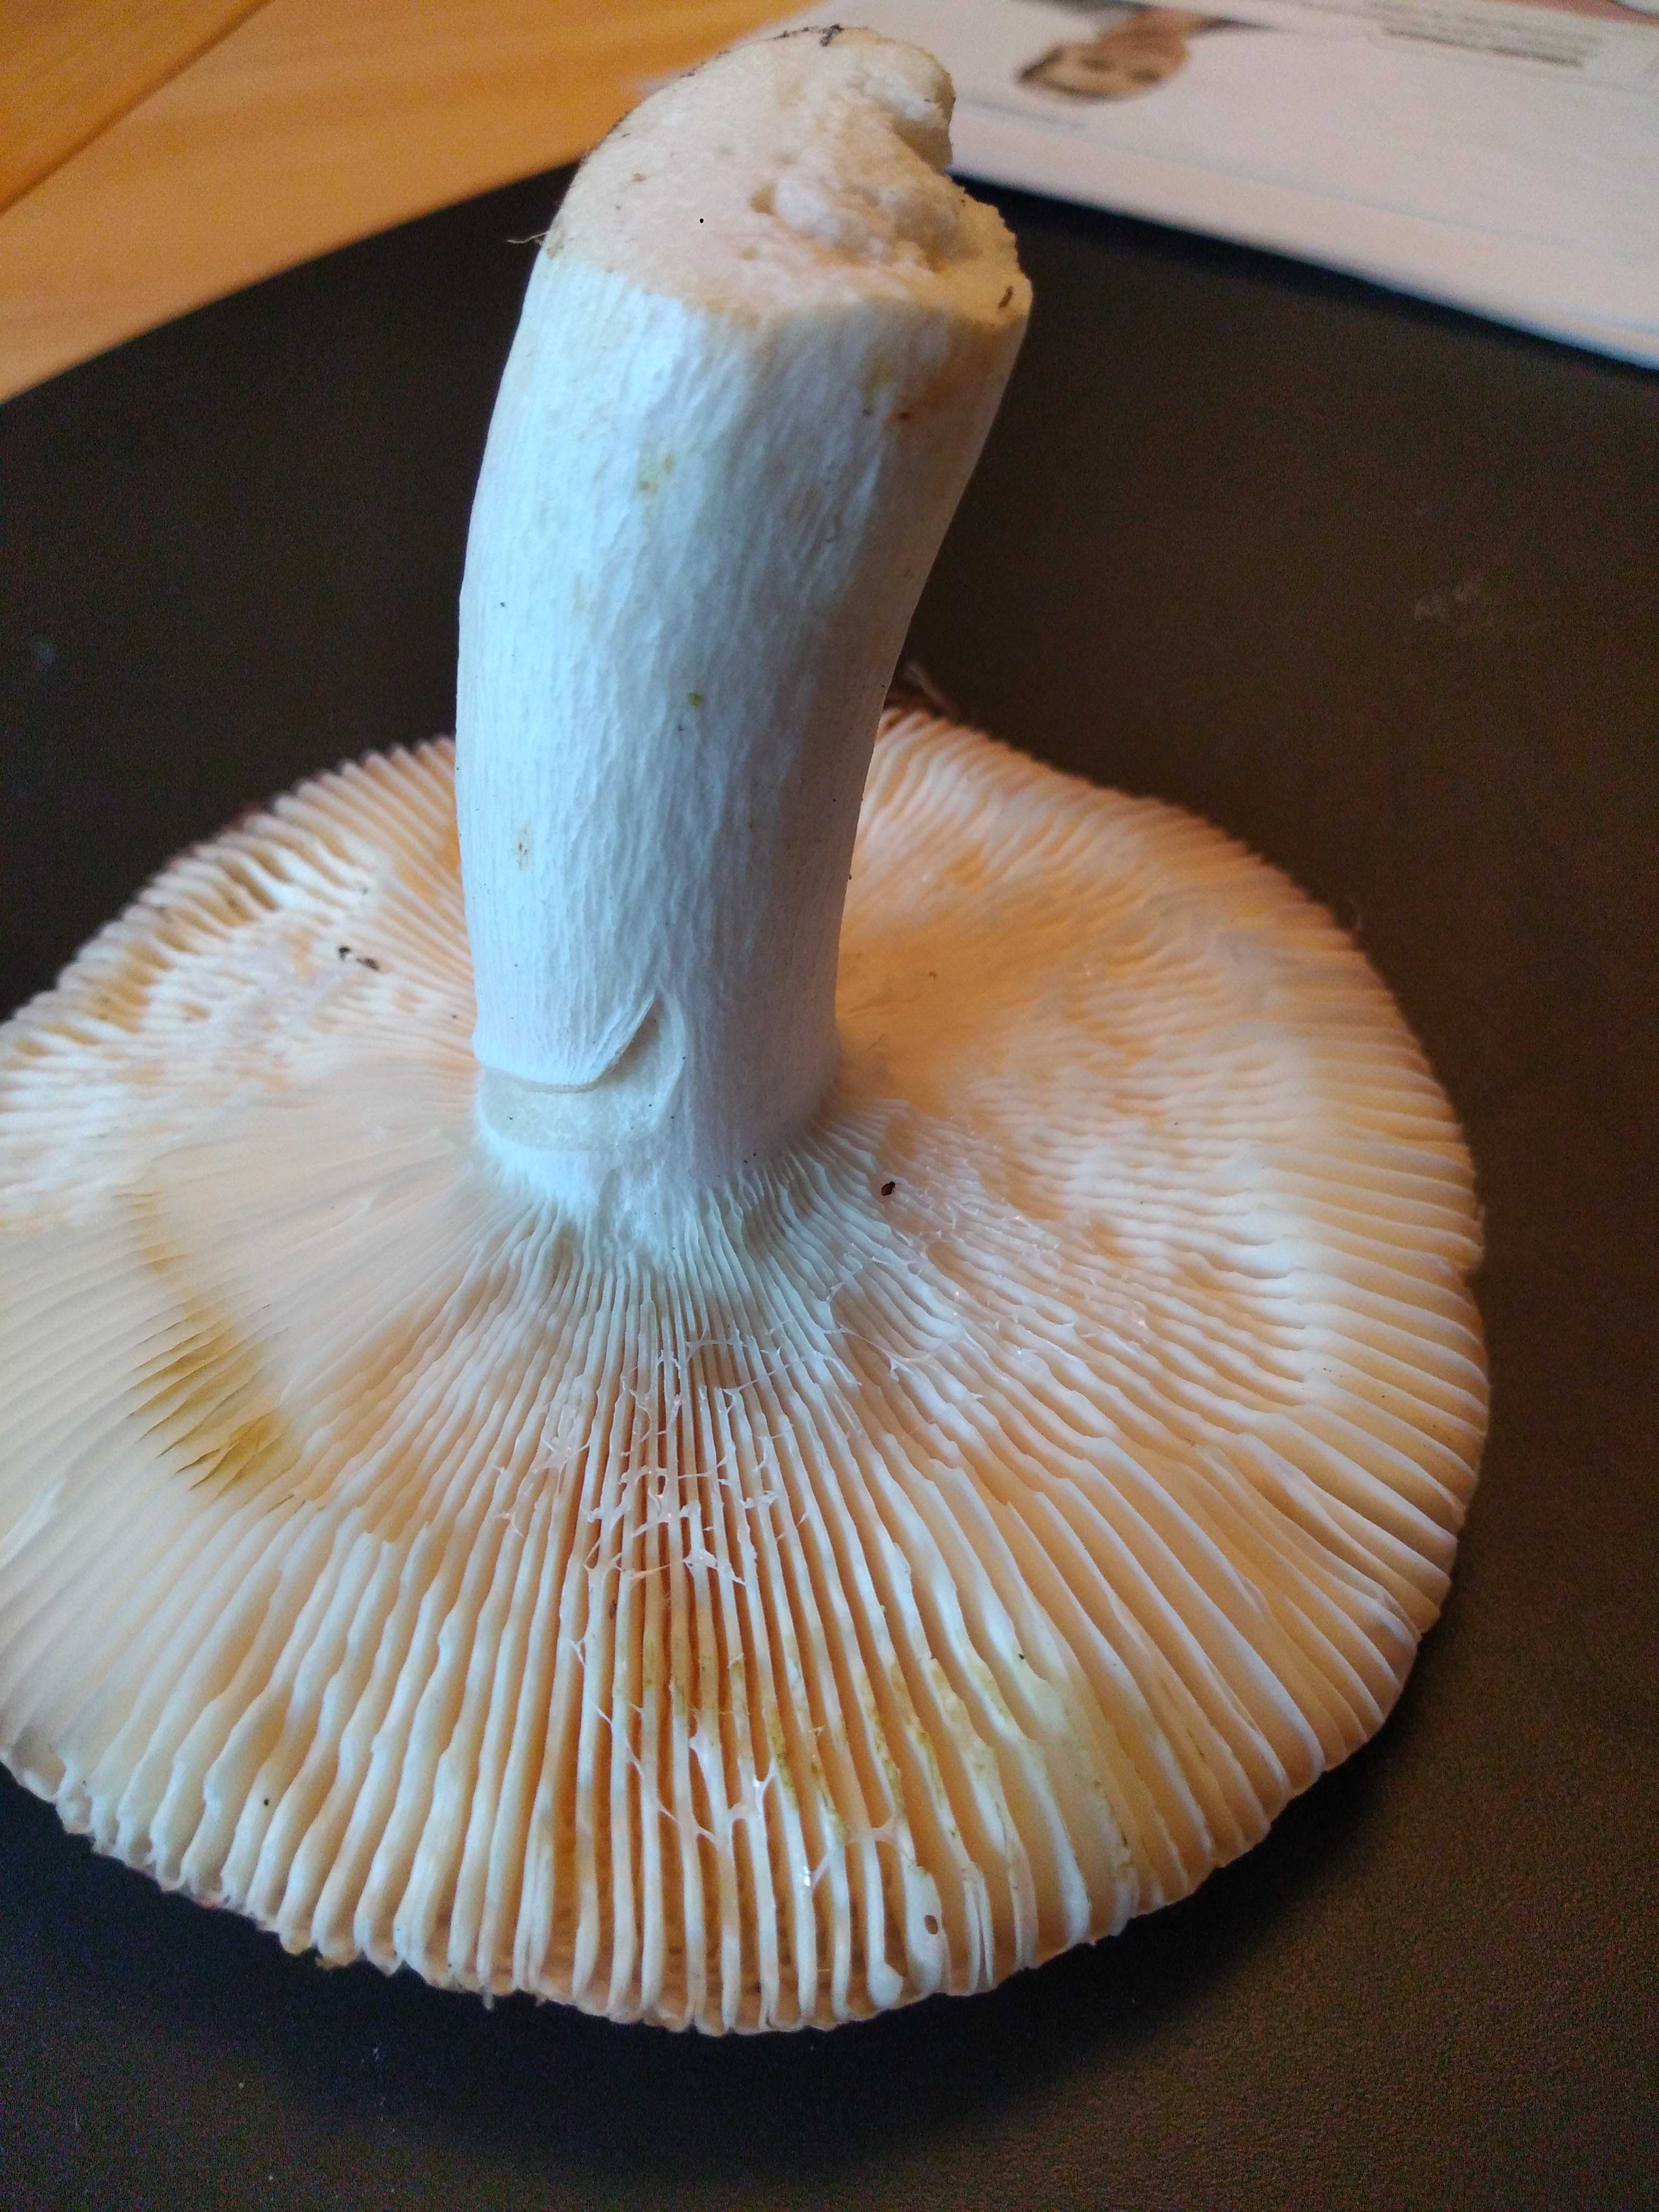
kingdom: Fungi
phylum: Basidiomycota
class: Agaricomycetes
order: Russulales
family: Russulaceae
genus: Russula
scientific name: Russula
